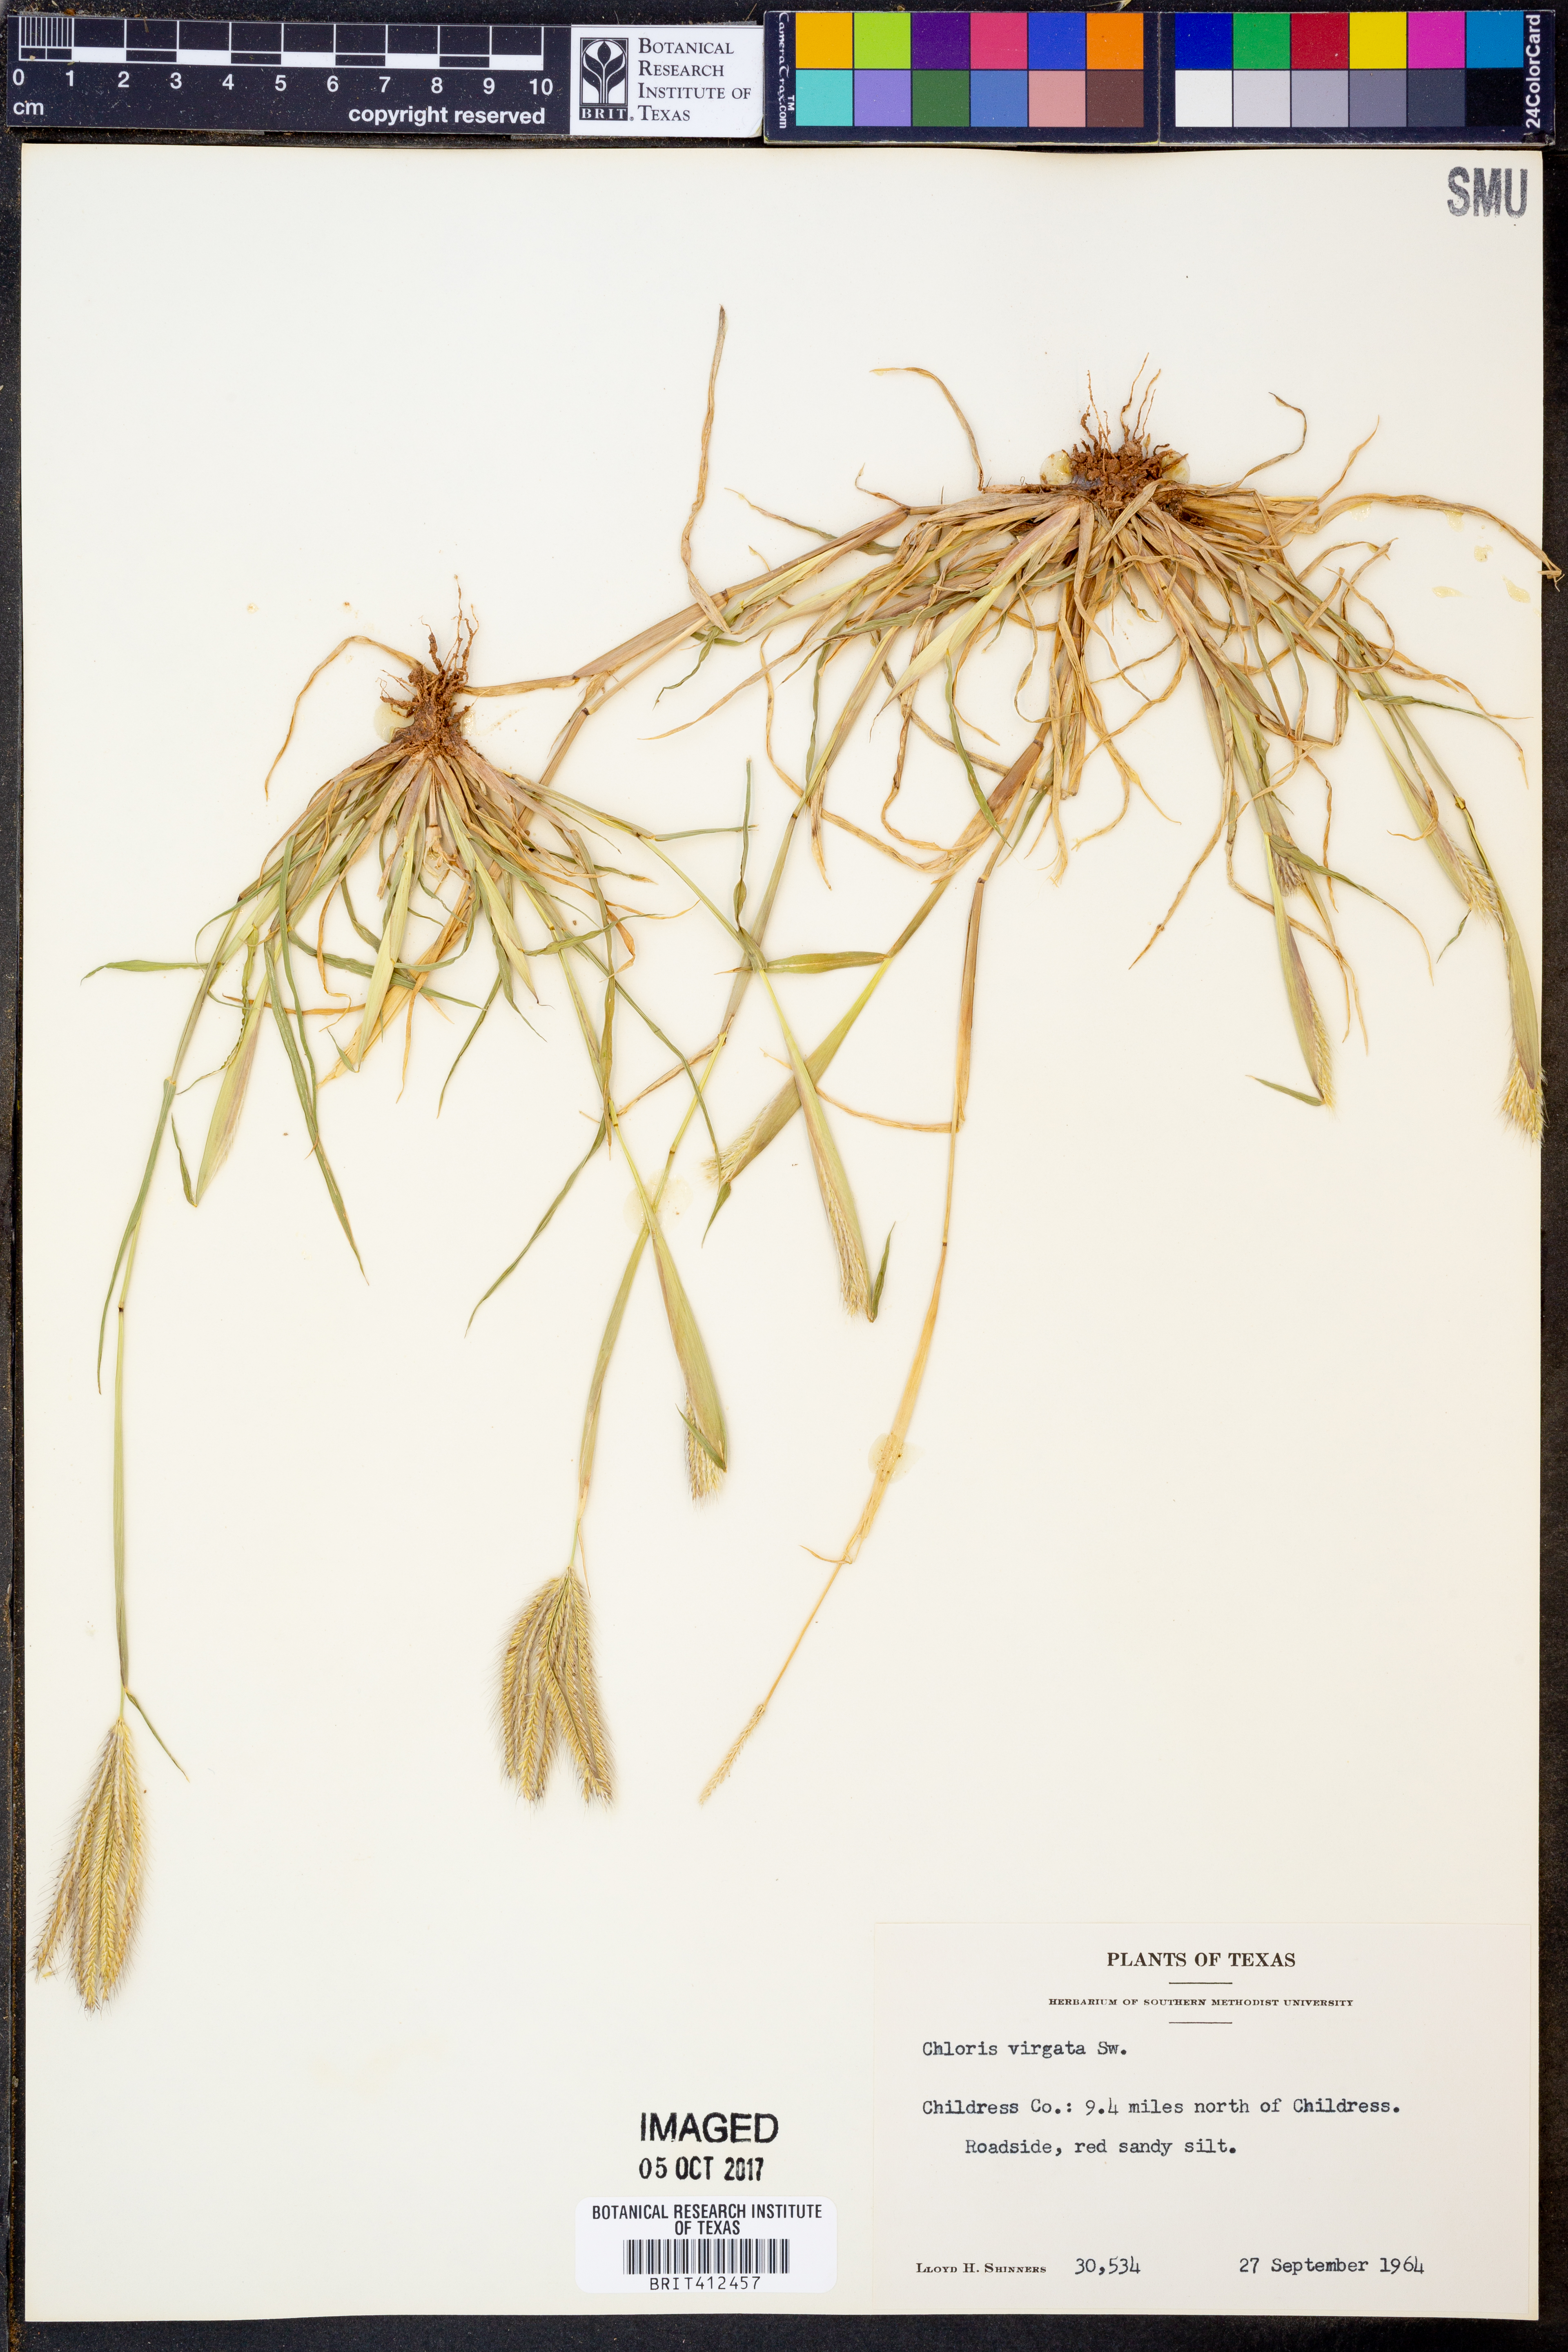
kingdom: Plantae
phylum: Tracheophyta
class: Liliopsida
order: Poales
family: Poaceae
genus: Chloris
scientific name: Chloris virgata
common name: Feathery rhodes-grass
